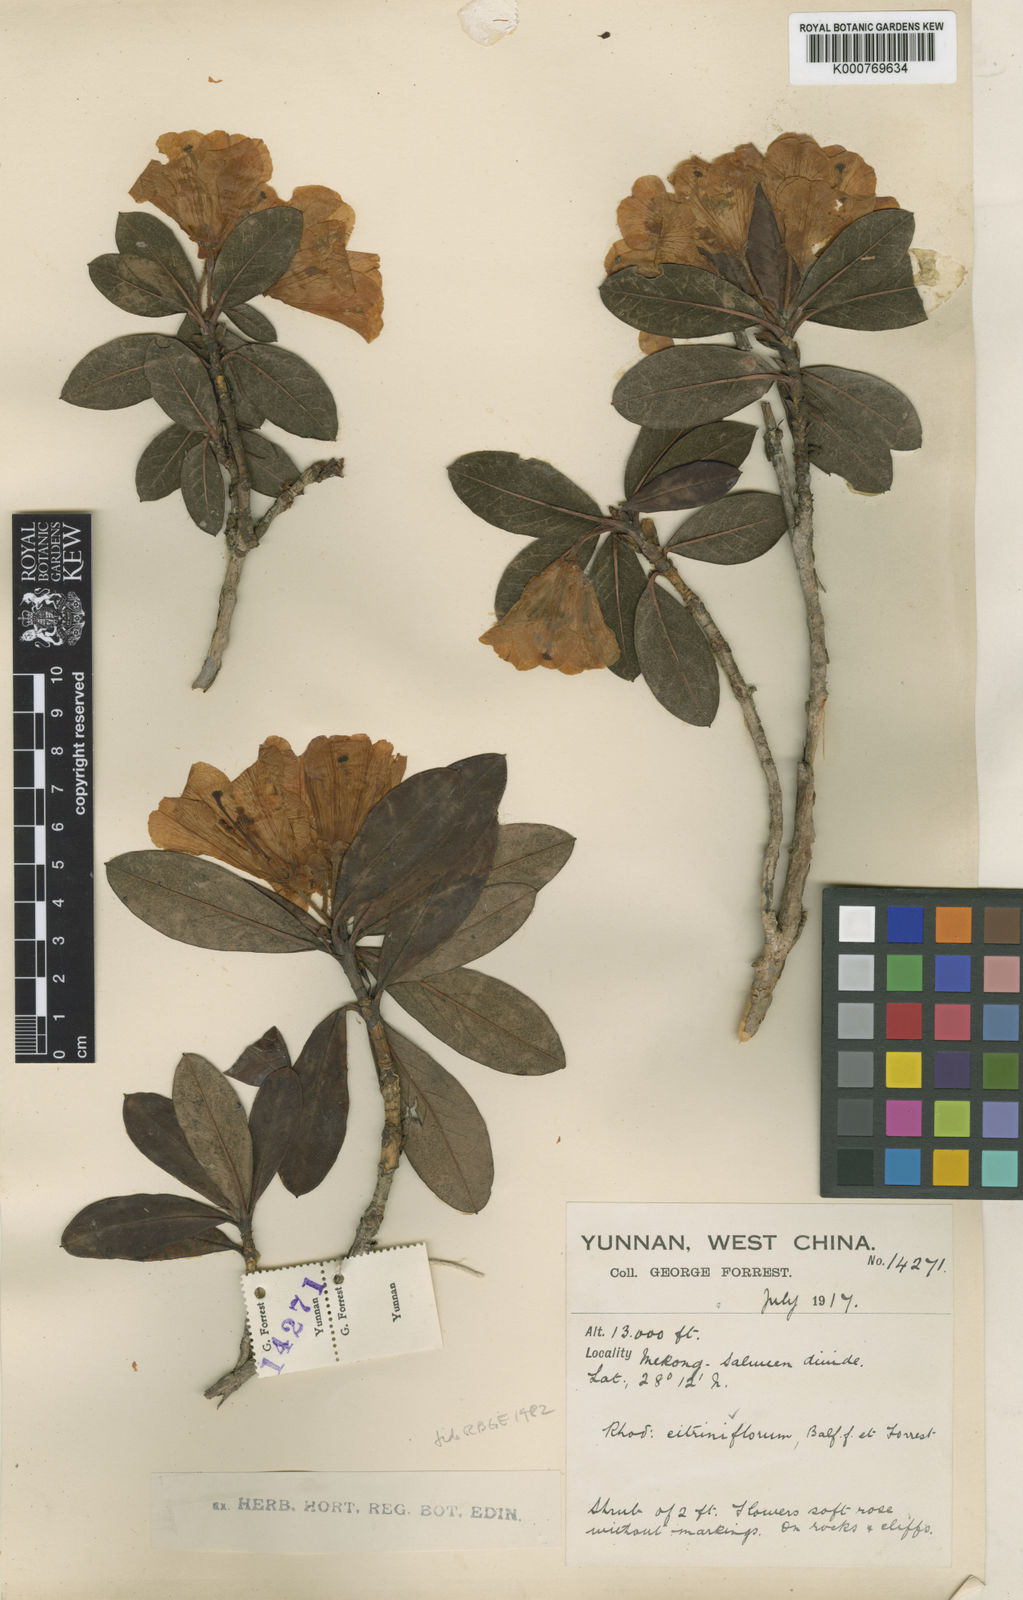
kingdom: Plantae
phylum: Tracheophyta
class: Magnoliopsida
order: Ericales
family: Ericaceae
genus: Rhododendron
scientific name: Rhododendron citriniflorum
